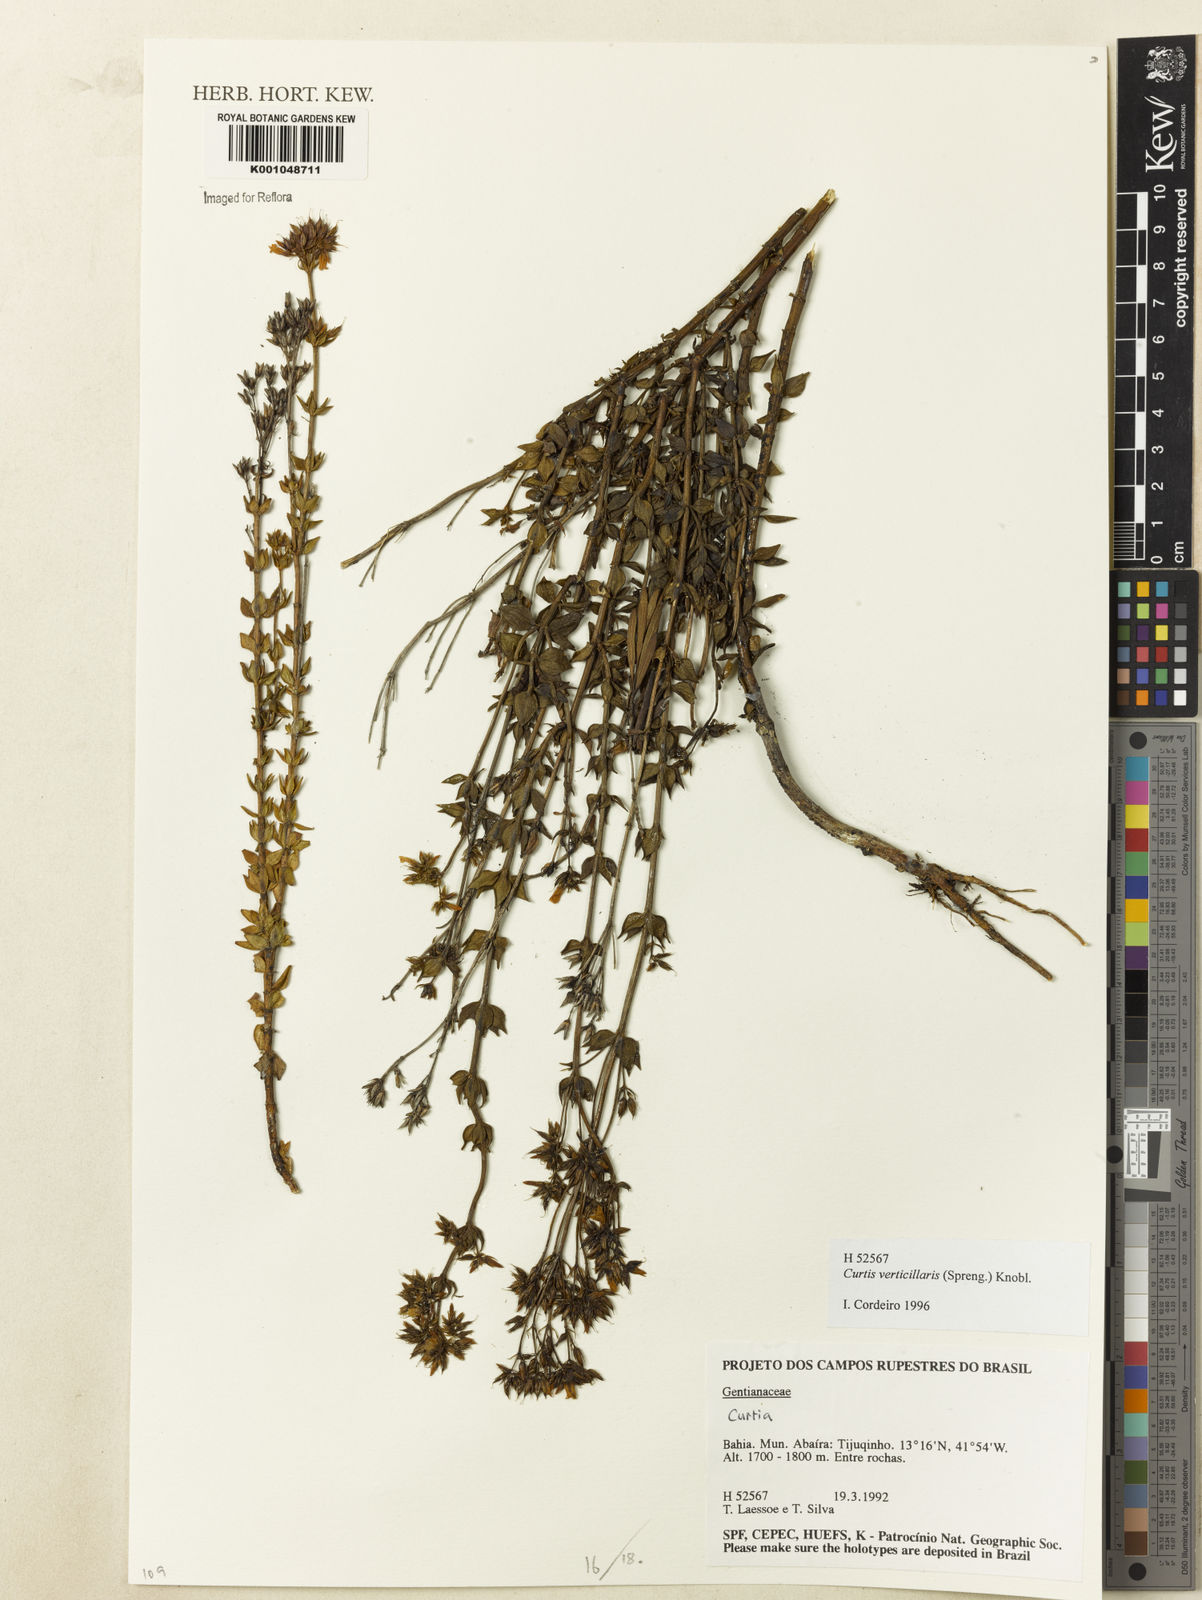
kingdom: Plantae
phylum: Tracheophyta
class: Magnoliopsida
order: Gentianales
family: Gentianaceae
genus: Curtia
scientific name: Curtia verticillaris
